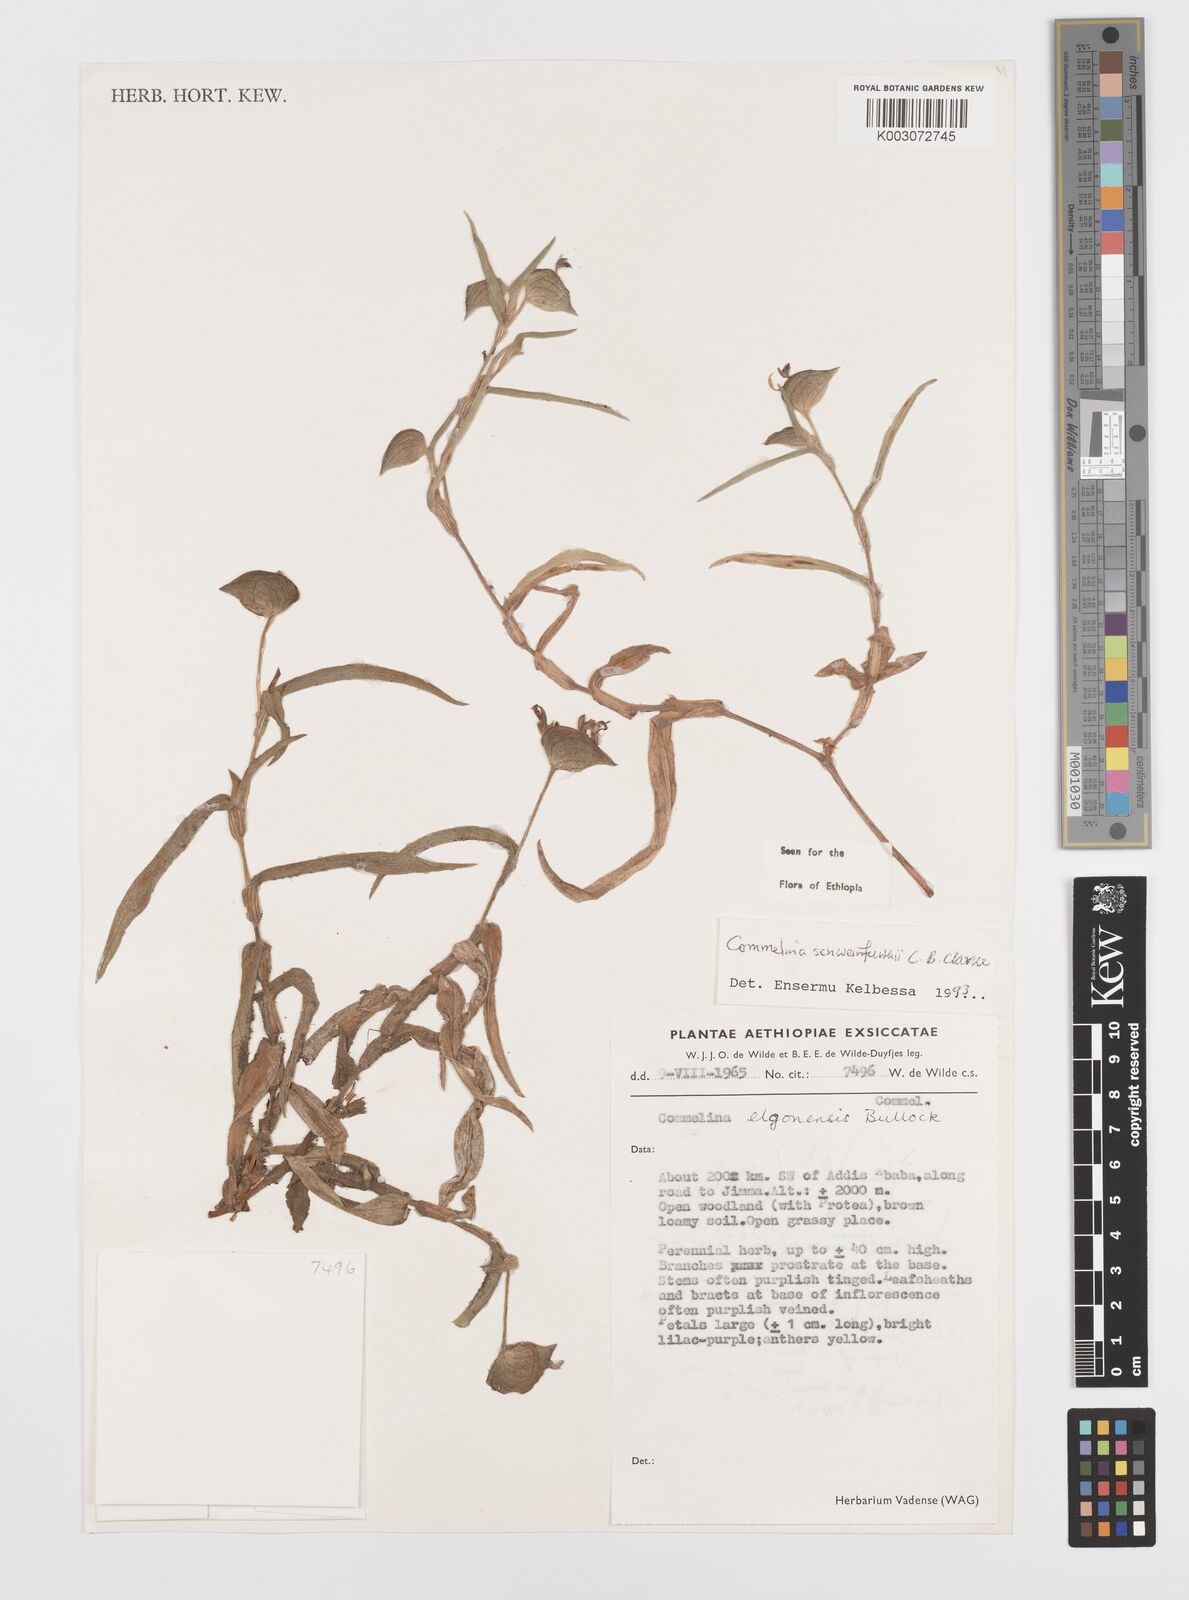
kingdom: Plantae
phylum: Tracheophyta
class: Liliopsida
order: Commelinales
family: Commelinaceae
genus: Commelina
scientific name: Commelina schweinfurthii
